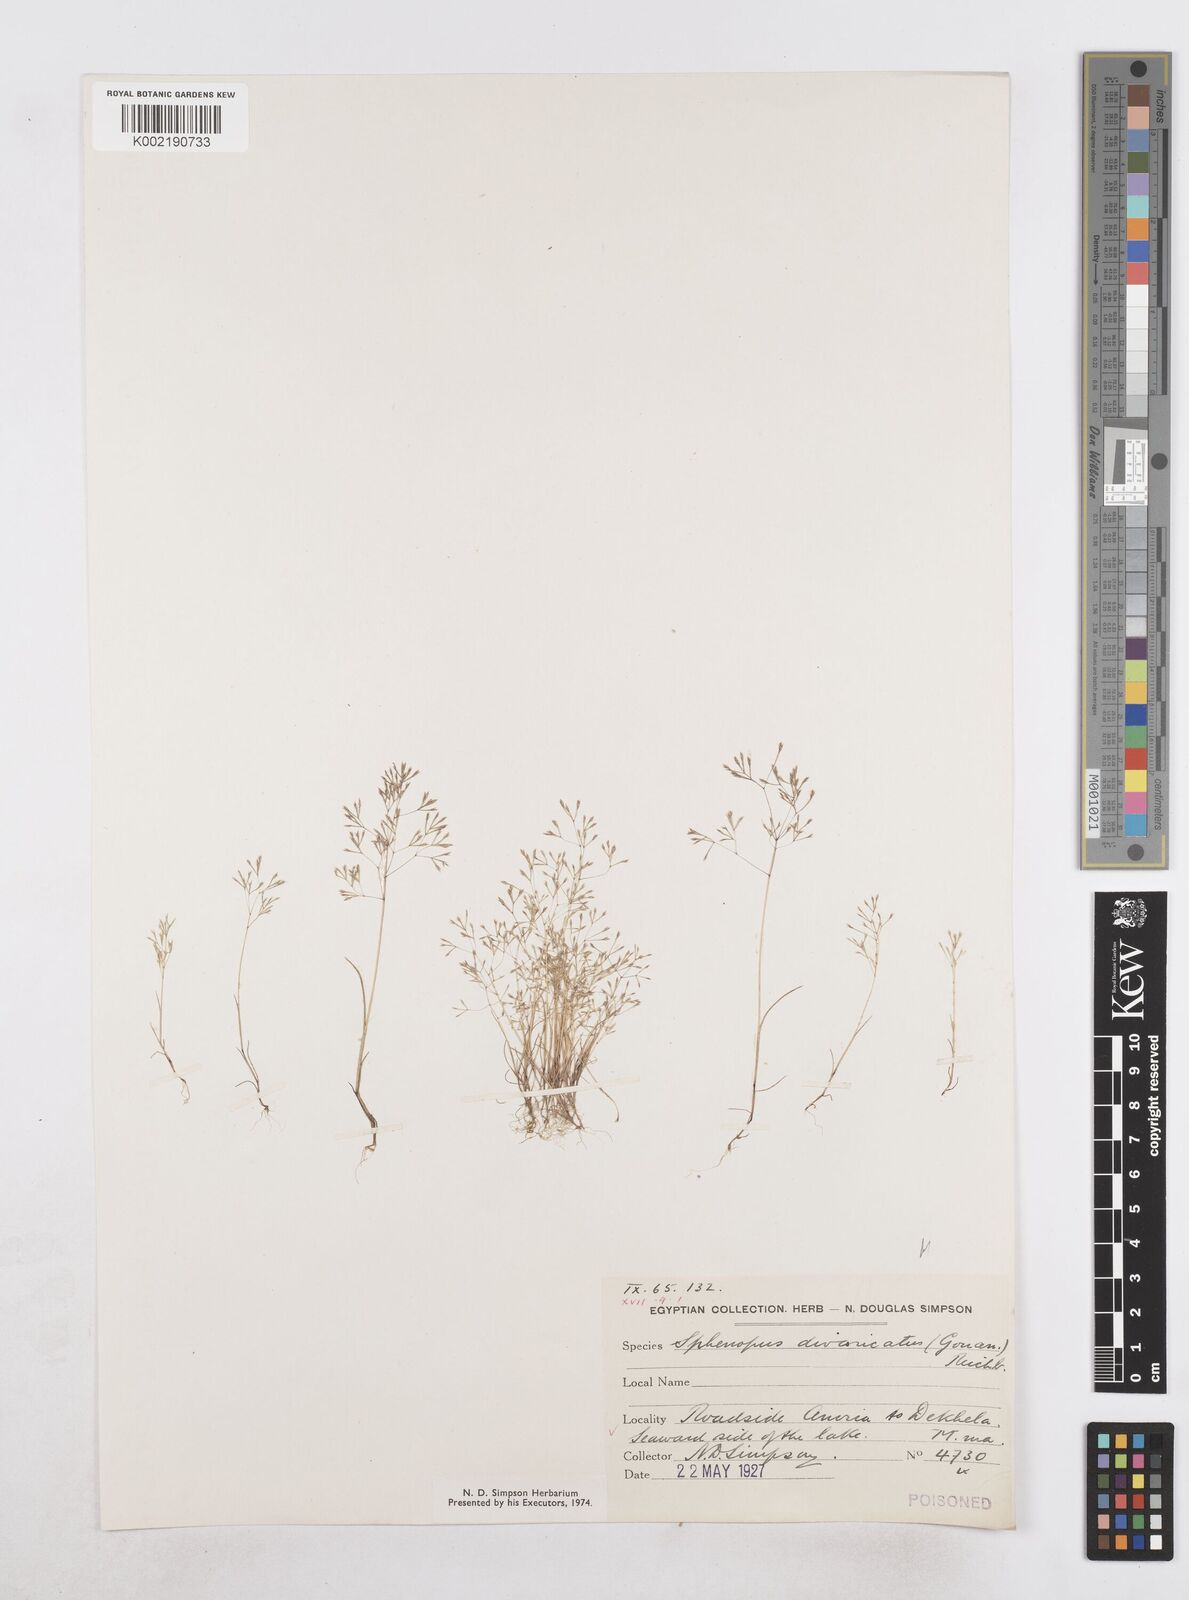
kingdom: Plantae
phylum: Tracheophyta
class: Liliopsida
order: Poales
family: Poaceae
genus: Sphenopus
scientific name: Sphenopus divaricatus
